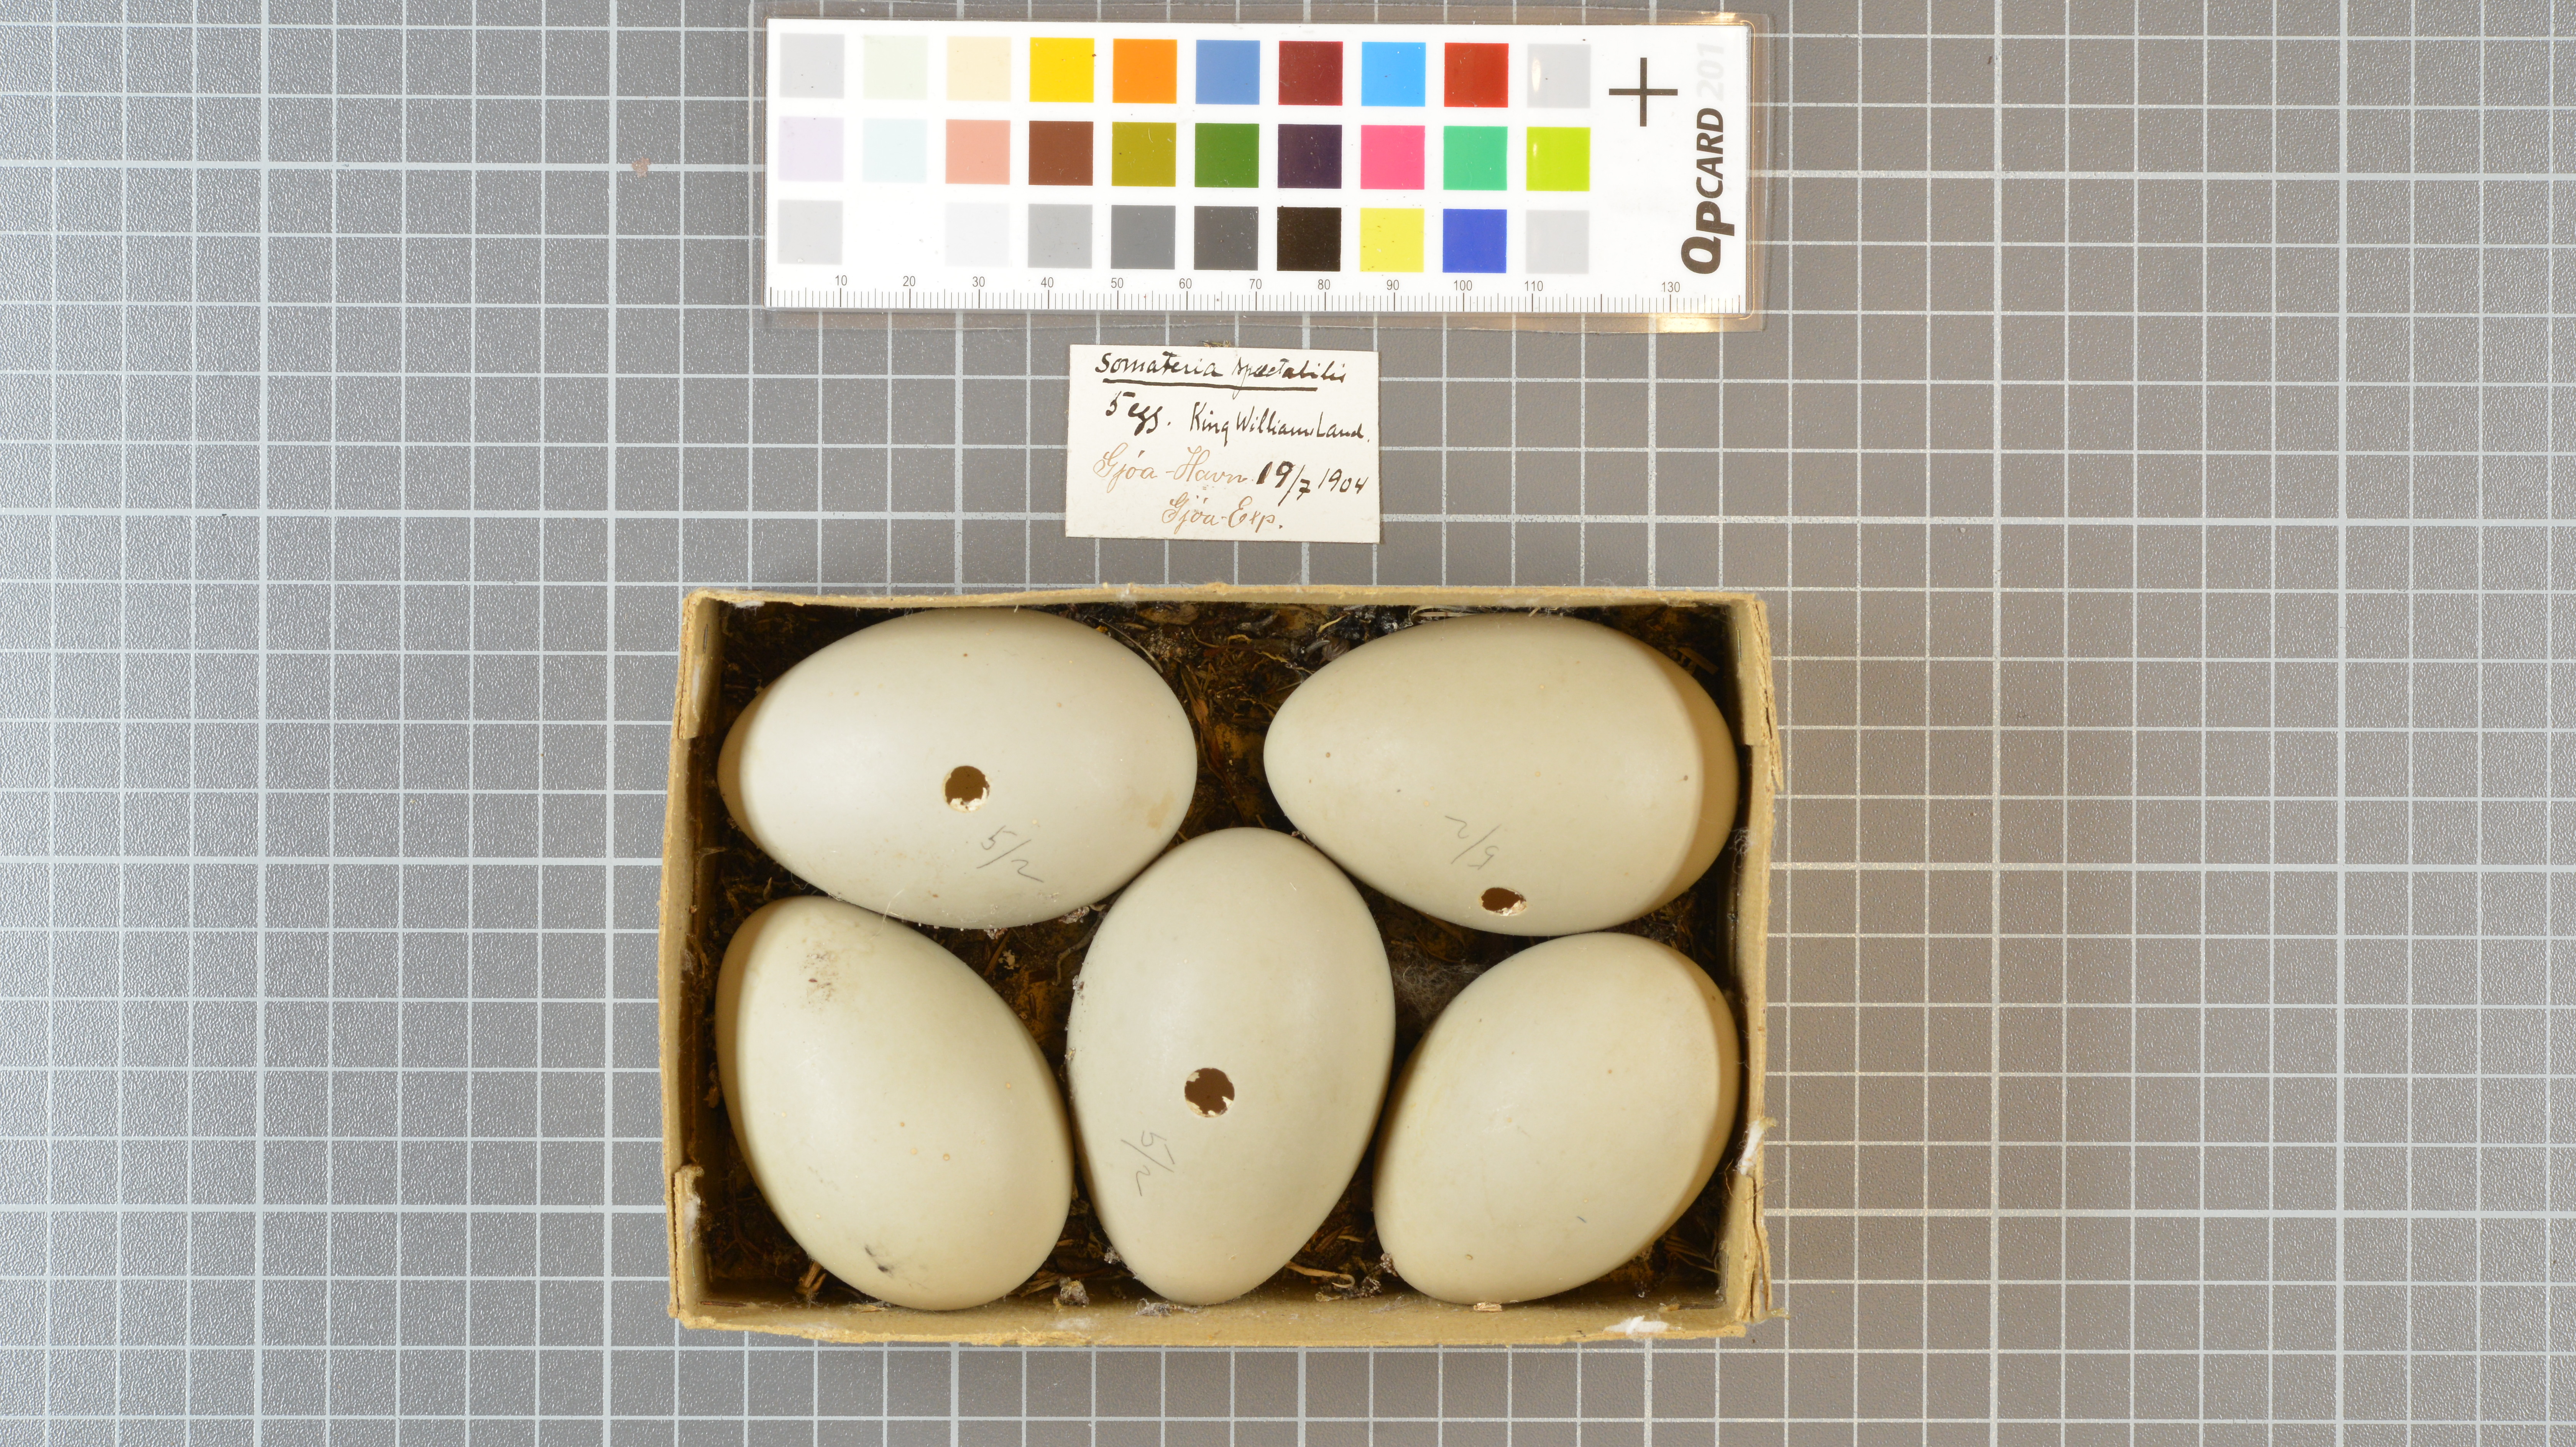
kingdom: Animalia
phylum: Chordata
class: Aves
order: Anseriformes
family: Anatidae
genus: Somateria
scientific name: Somateria spectabilis
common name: King eider
